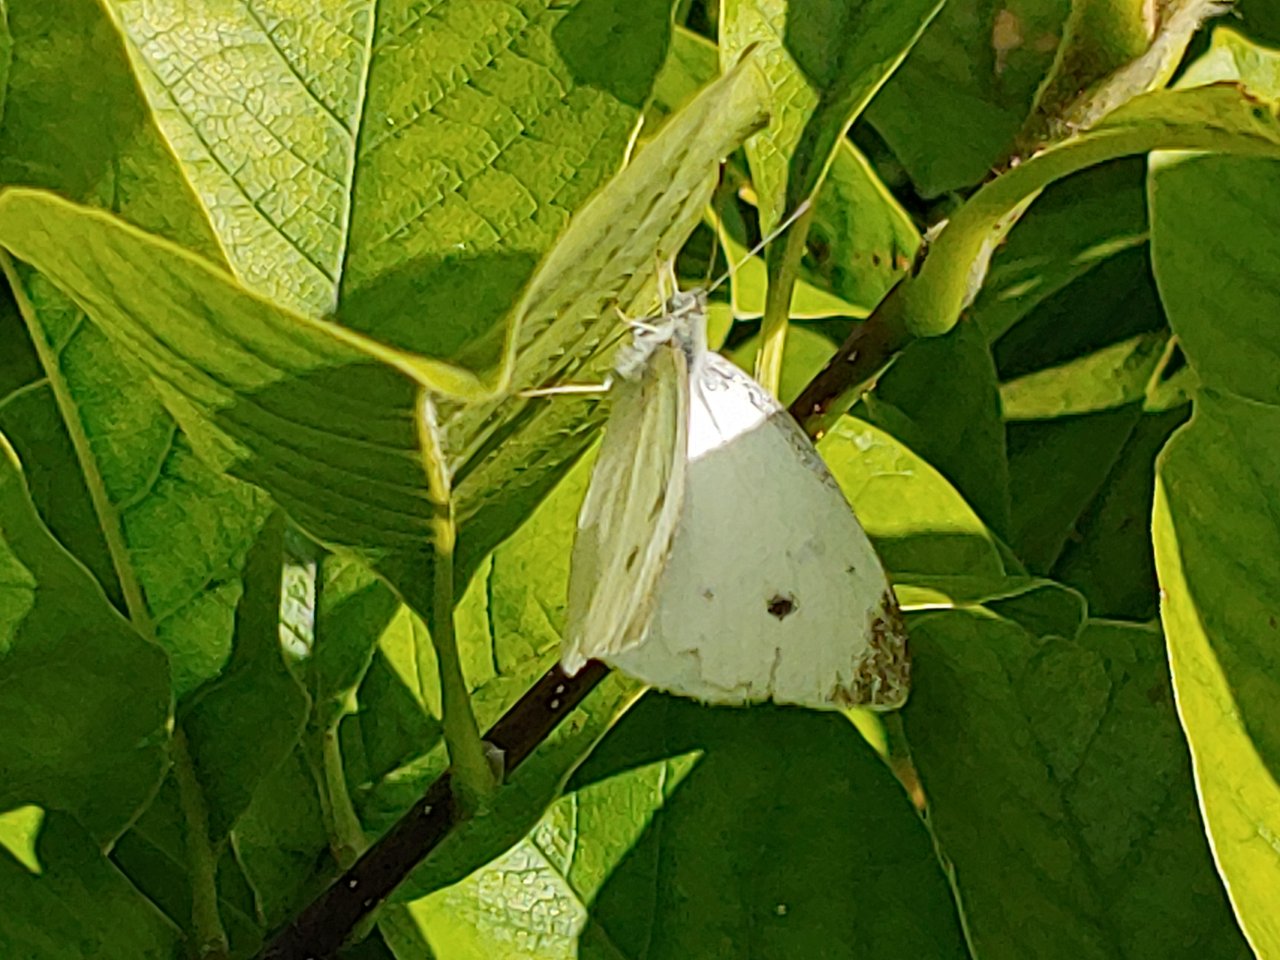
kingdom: Animalia
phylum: Arthropoda
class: Insecta
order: Lepidoptera
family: Pieridae
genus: Pieris
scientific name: Pieris rapae
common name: Cabbage White
